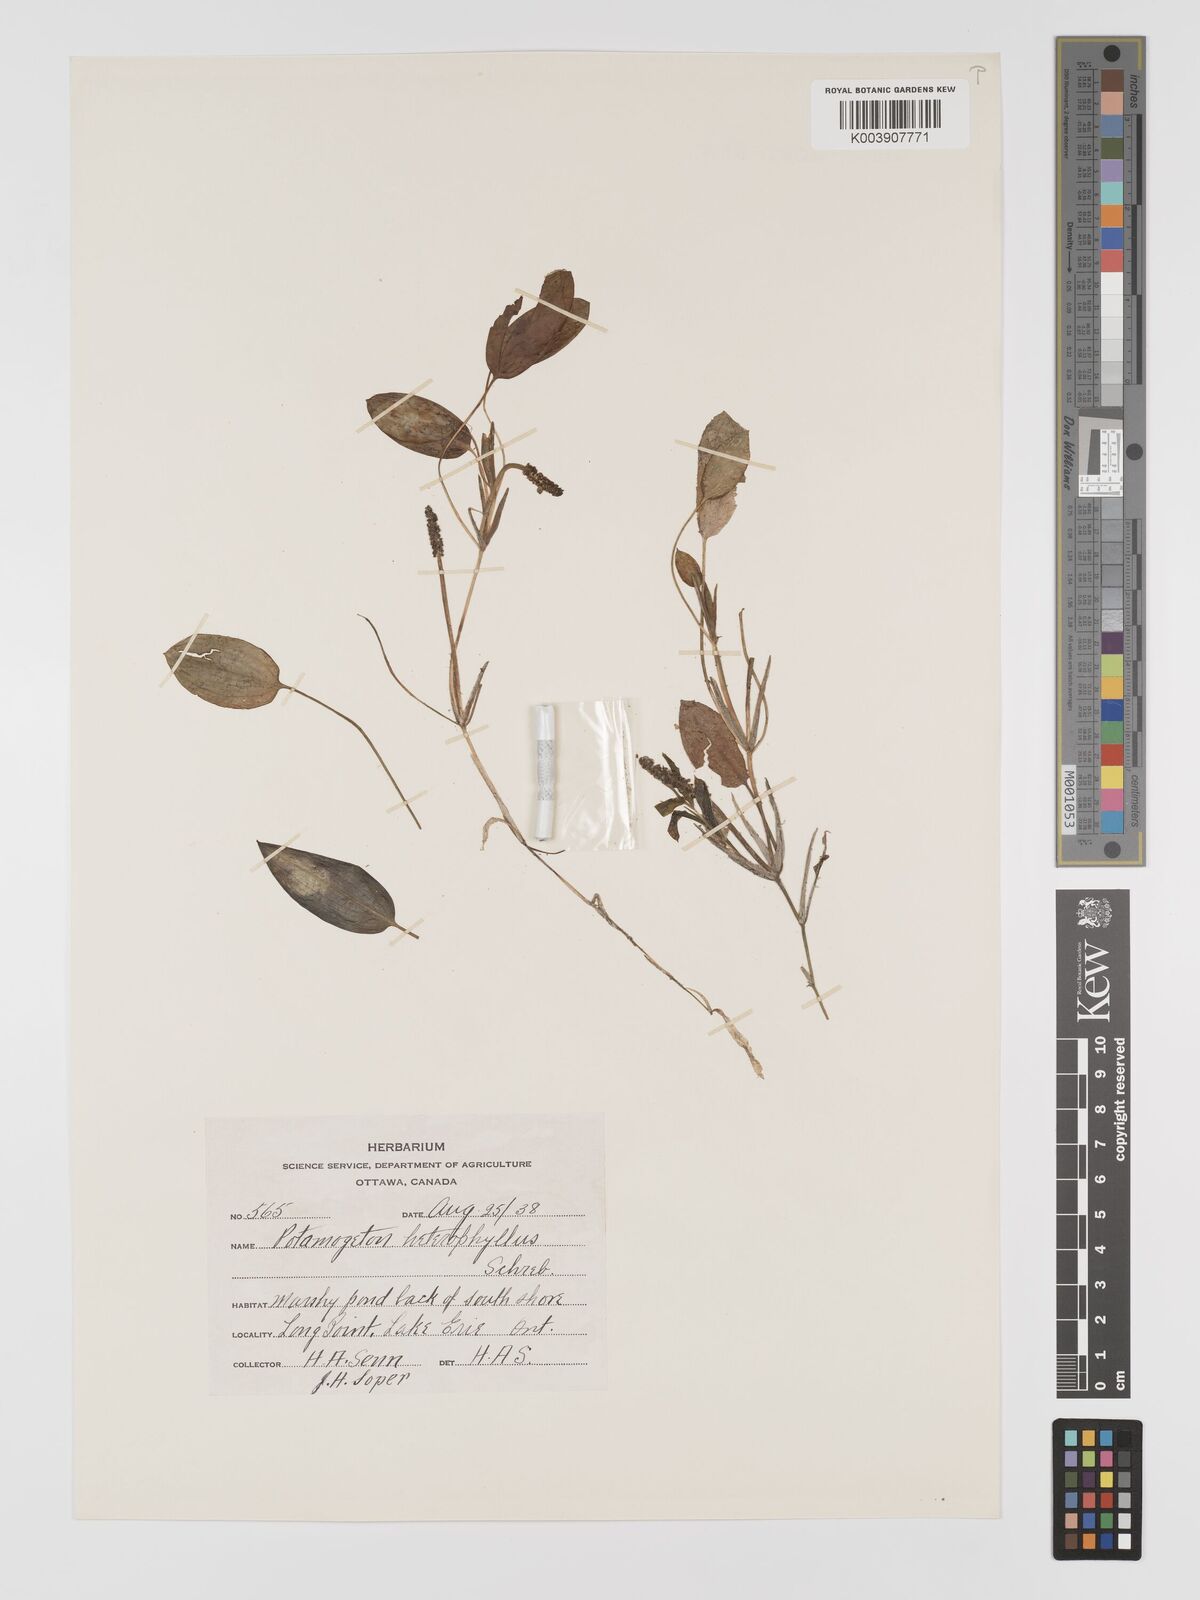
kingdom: Plantae
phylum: Tracheophyta
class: Liliopsida
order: Alismatales
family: Potamogetonaceae
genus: Potamogeton
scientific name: Potamogeton gramineus
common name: Various-leaved pondweed
